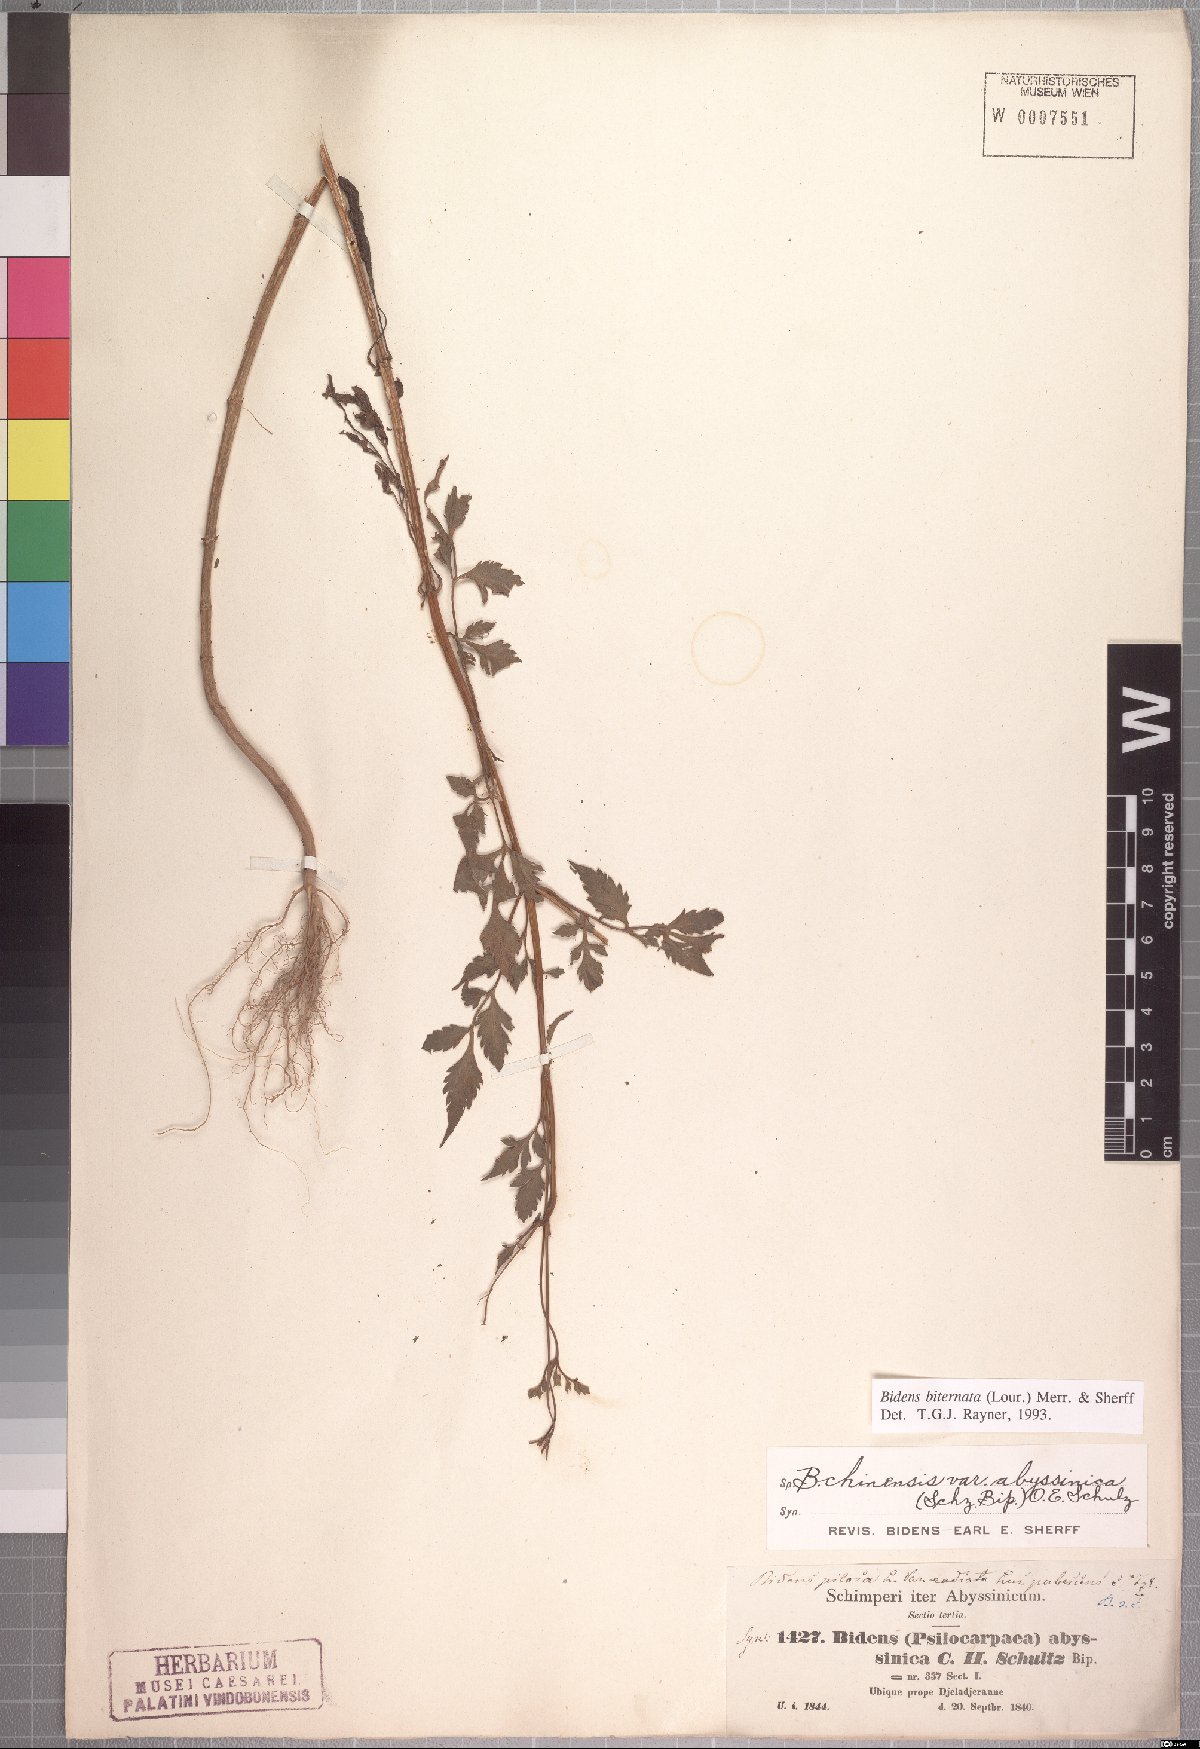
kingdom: Plantae
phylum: Tracheophyta
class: Magnoliopsida
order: Asterales
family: Asteraceae
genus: Bidens
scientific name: Bidens biternata
